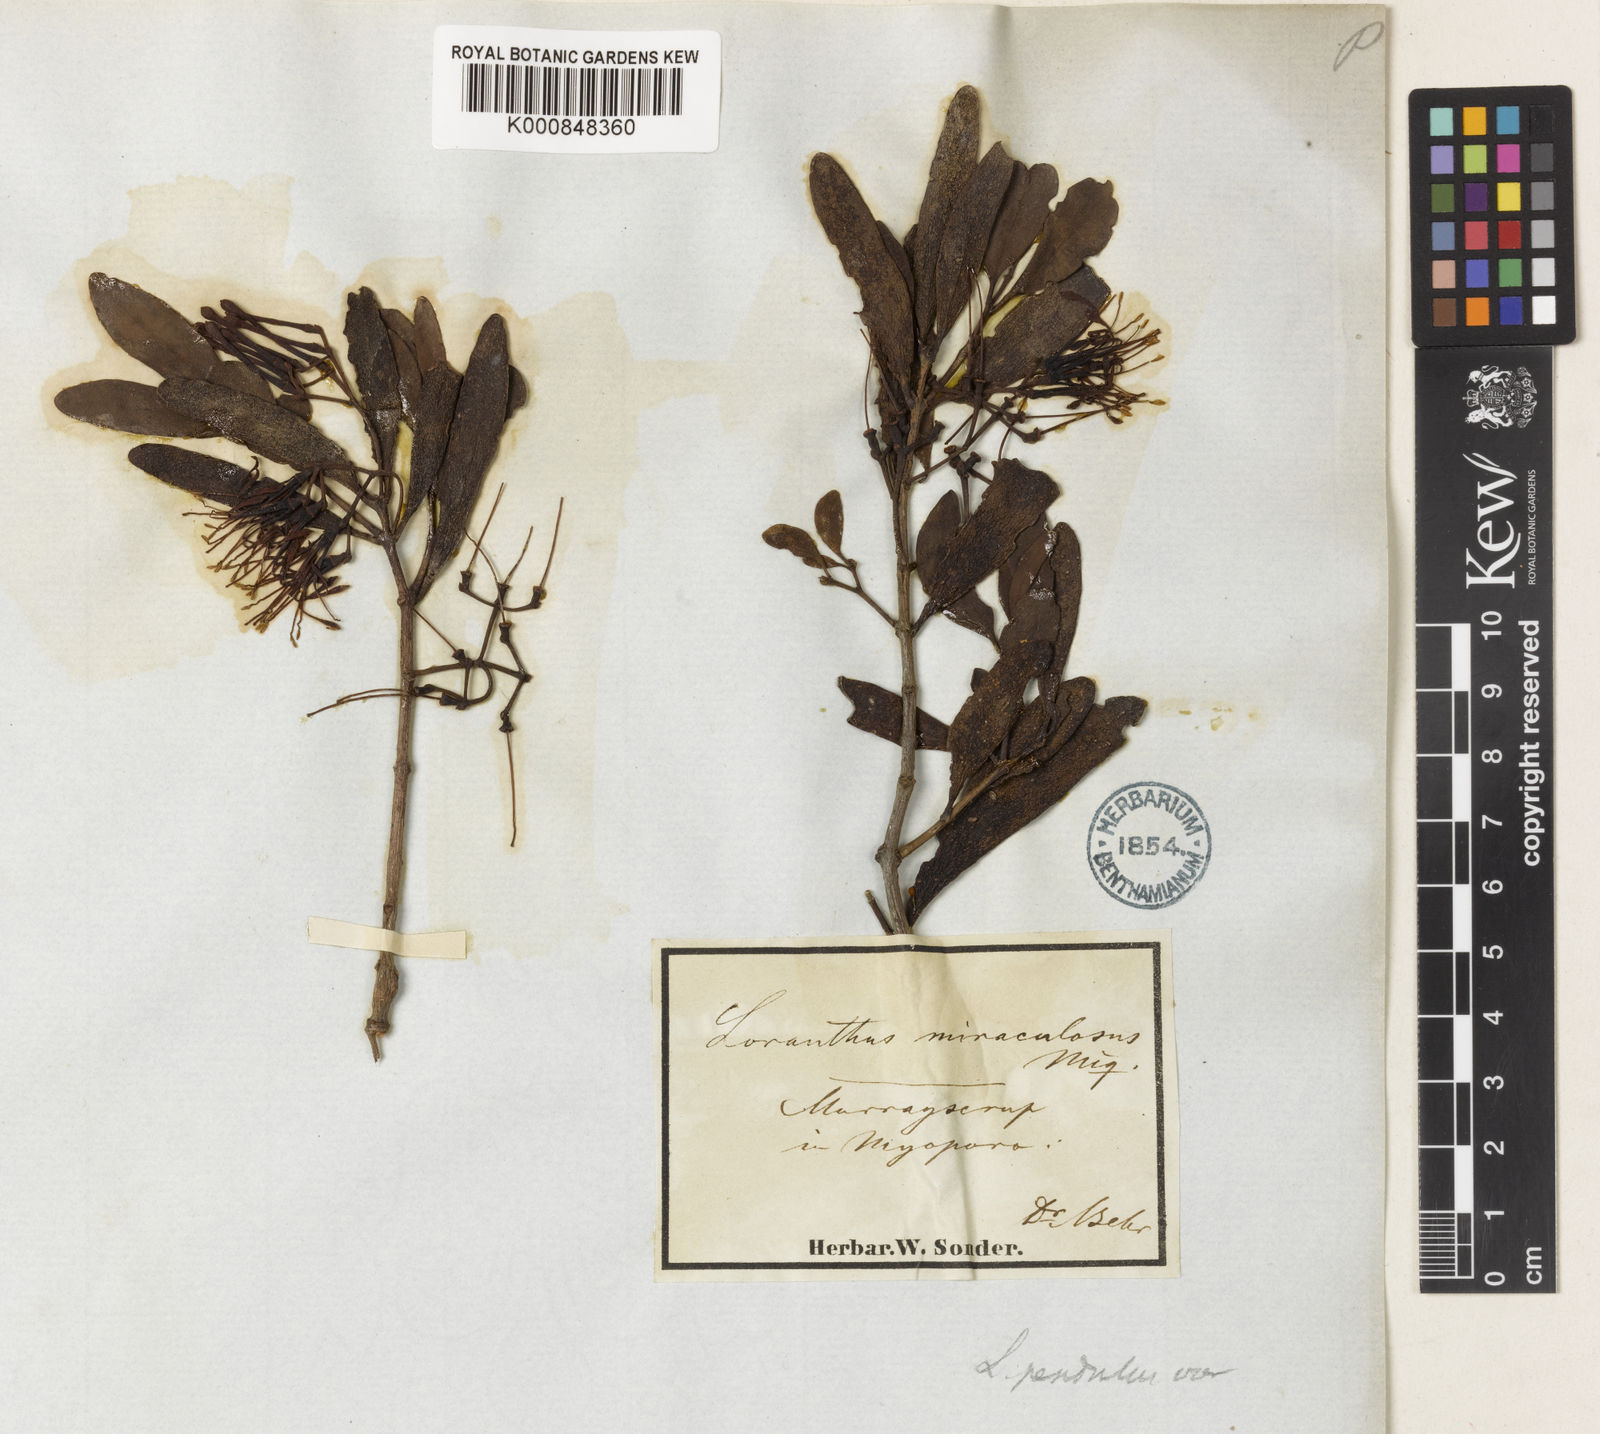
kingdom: Plantae
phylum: Tracheophyta
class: Magnoliopsida
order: Santalales
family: Loranthaceae
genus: Amyema
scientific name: Amyema pendula
